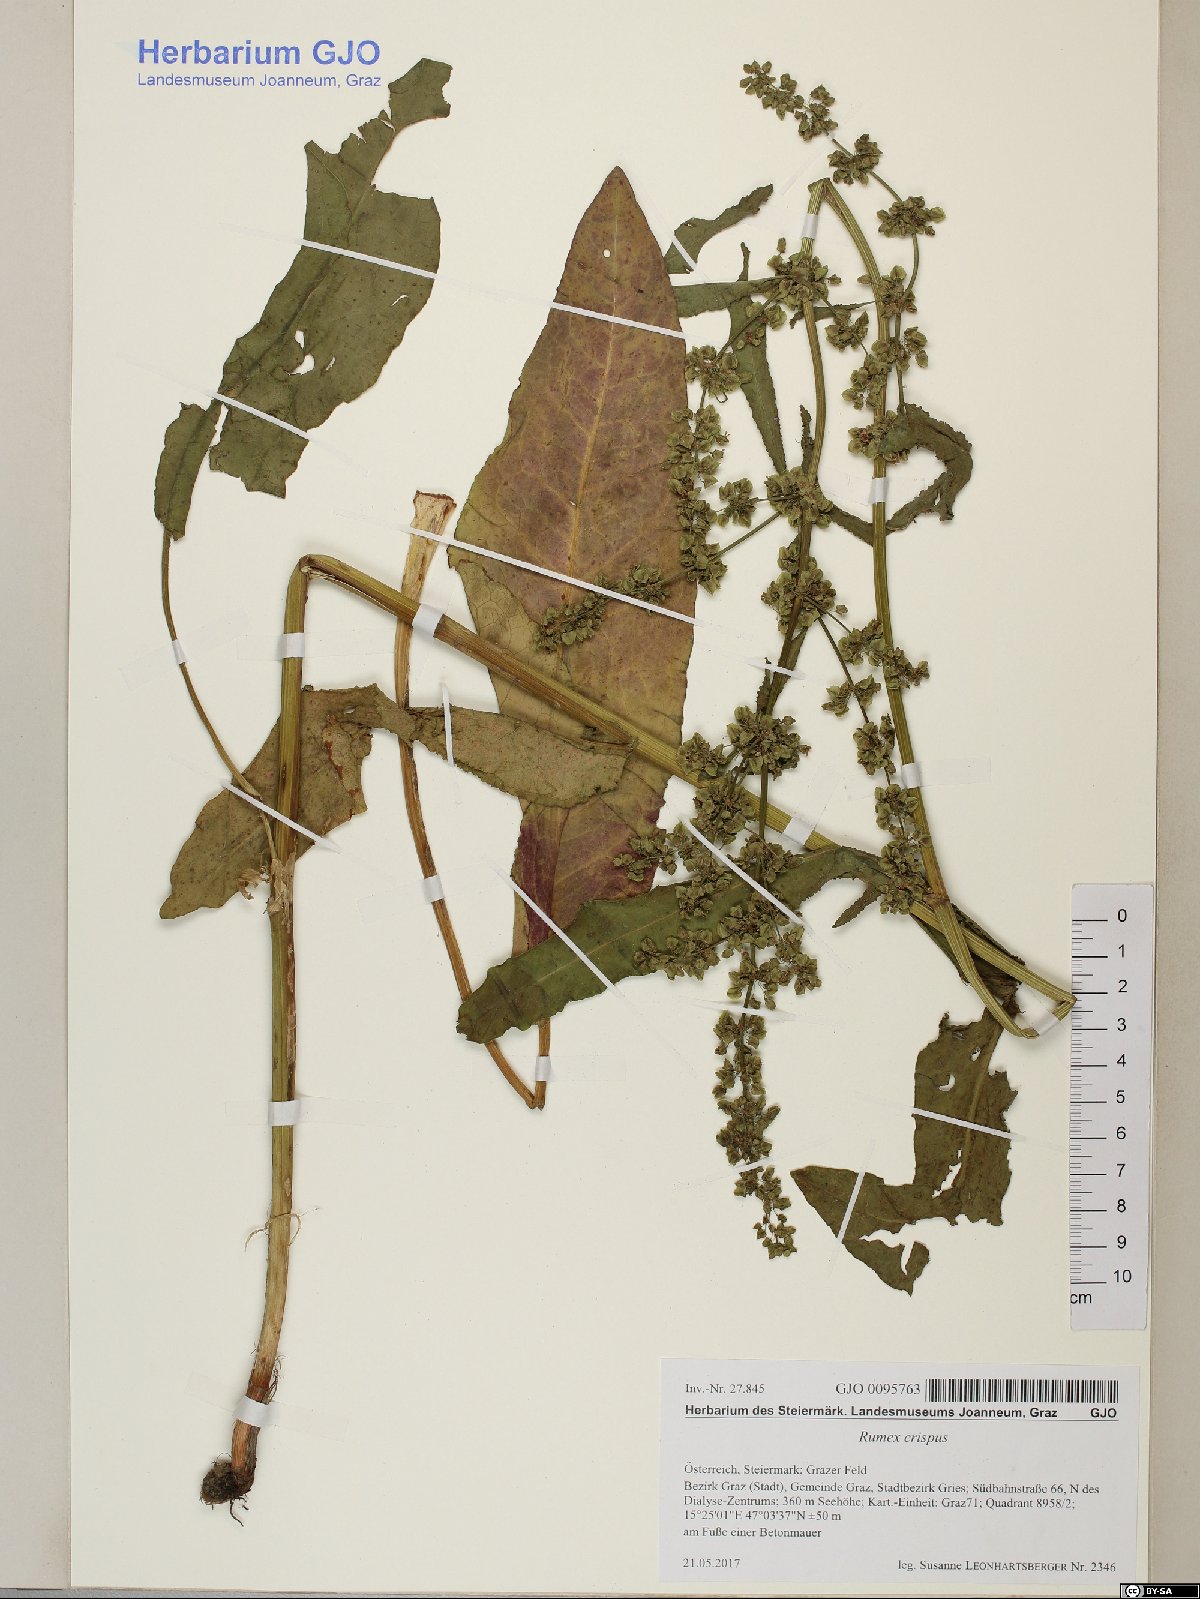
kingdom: Plantae
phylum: Tracheophyta
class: Magnoliopsida
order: Caryophyllales
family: Polygonaceae
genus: Rumex
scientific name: Rumex crispus
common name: Curled dock
